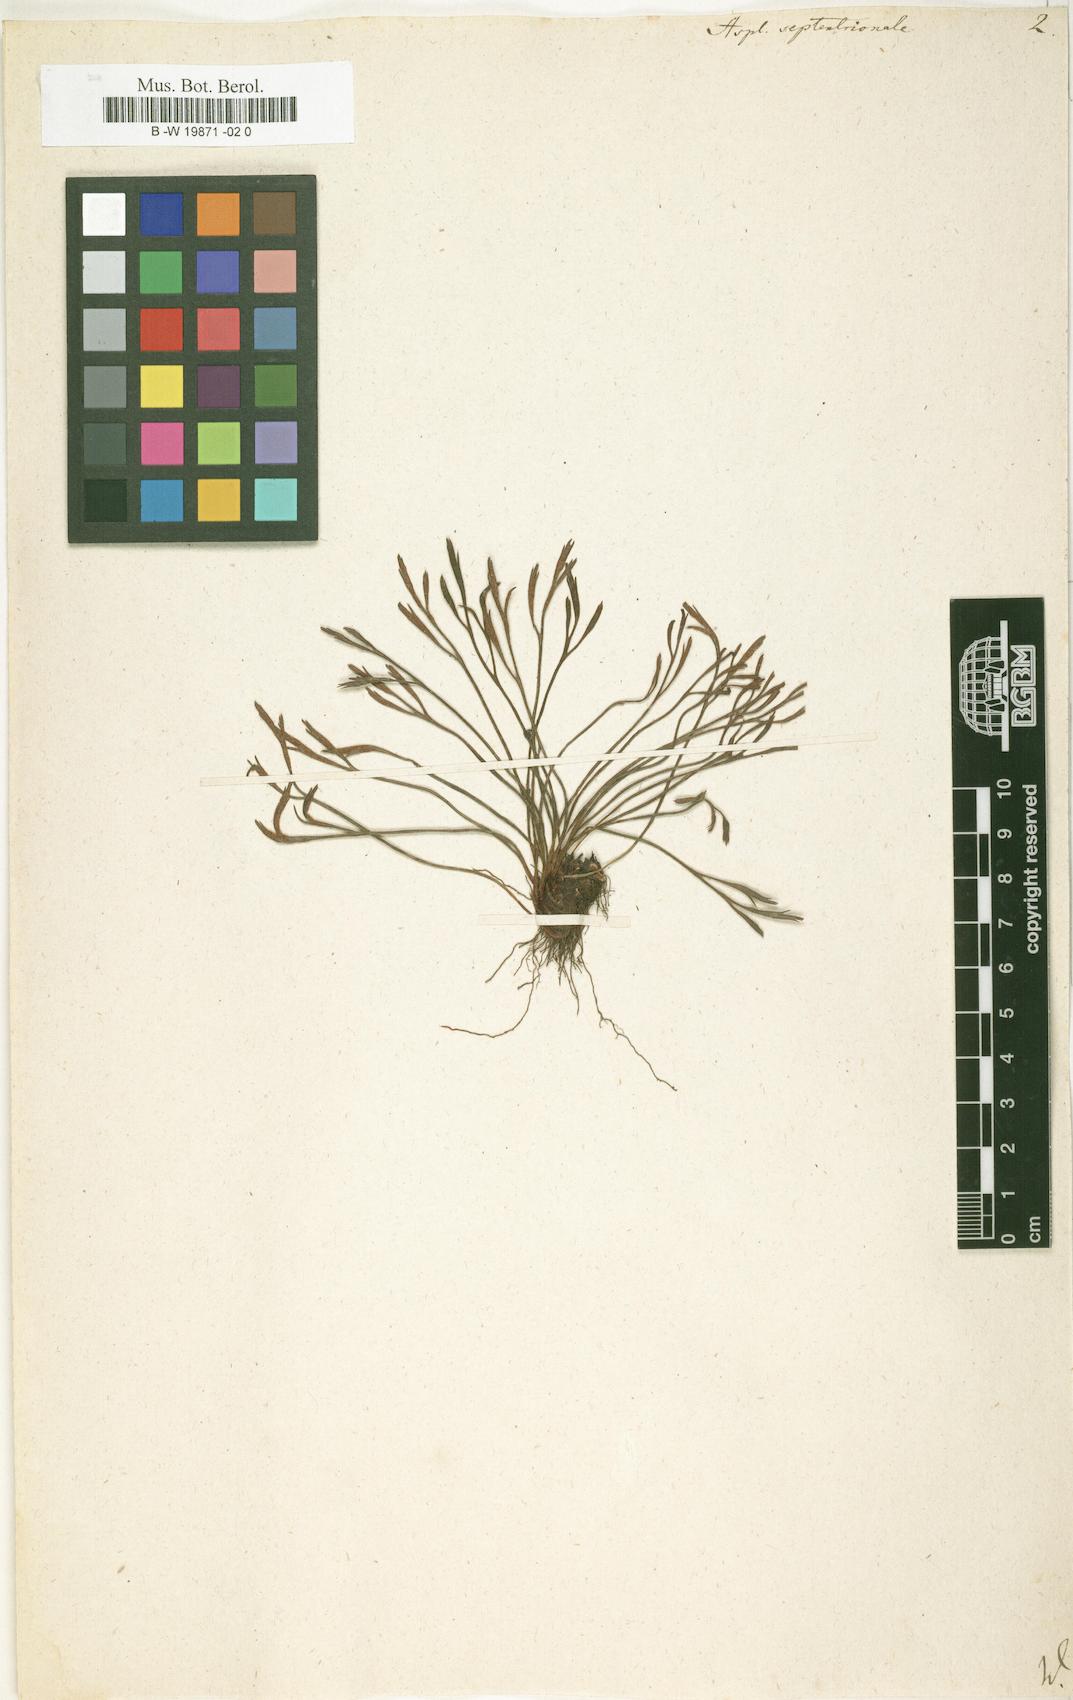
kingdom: Plantae
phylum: Tracheophyta
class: Polypodiopsida
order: Polypodiales
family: Aspleniaceae
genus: Asplenium
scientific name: Asplenium septentrionale
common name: Forked spleenwort
